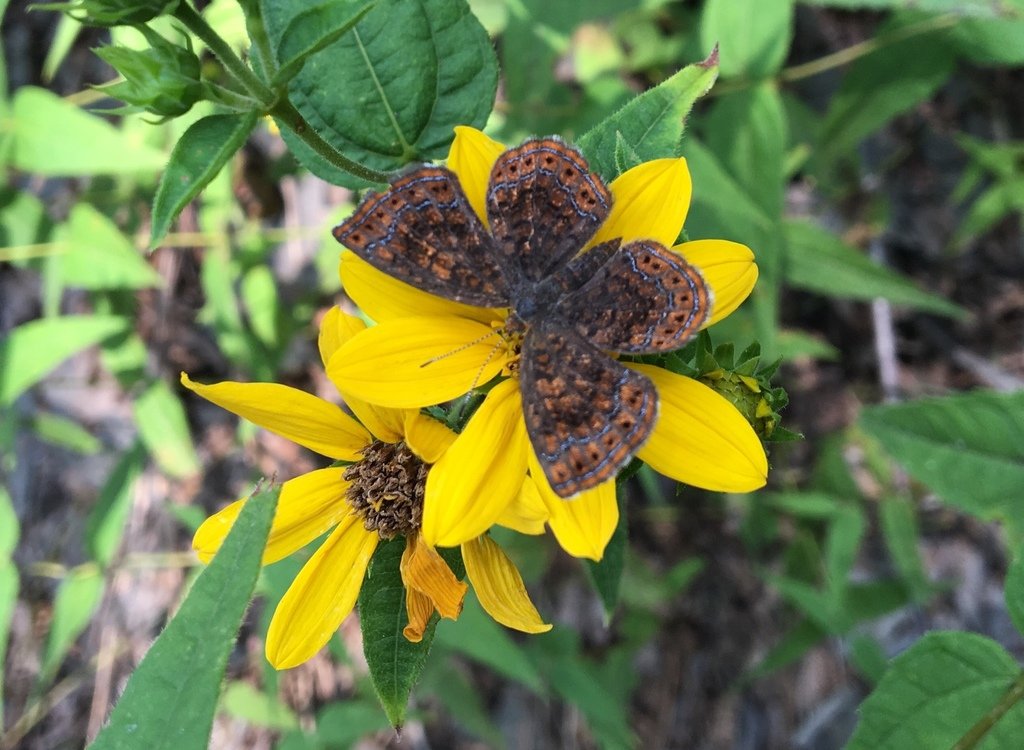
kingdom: Animalia
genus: Calephelis
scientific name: Calephelis borealis
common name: Northern Metalmark
